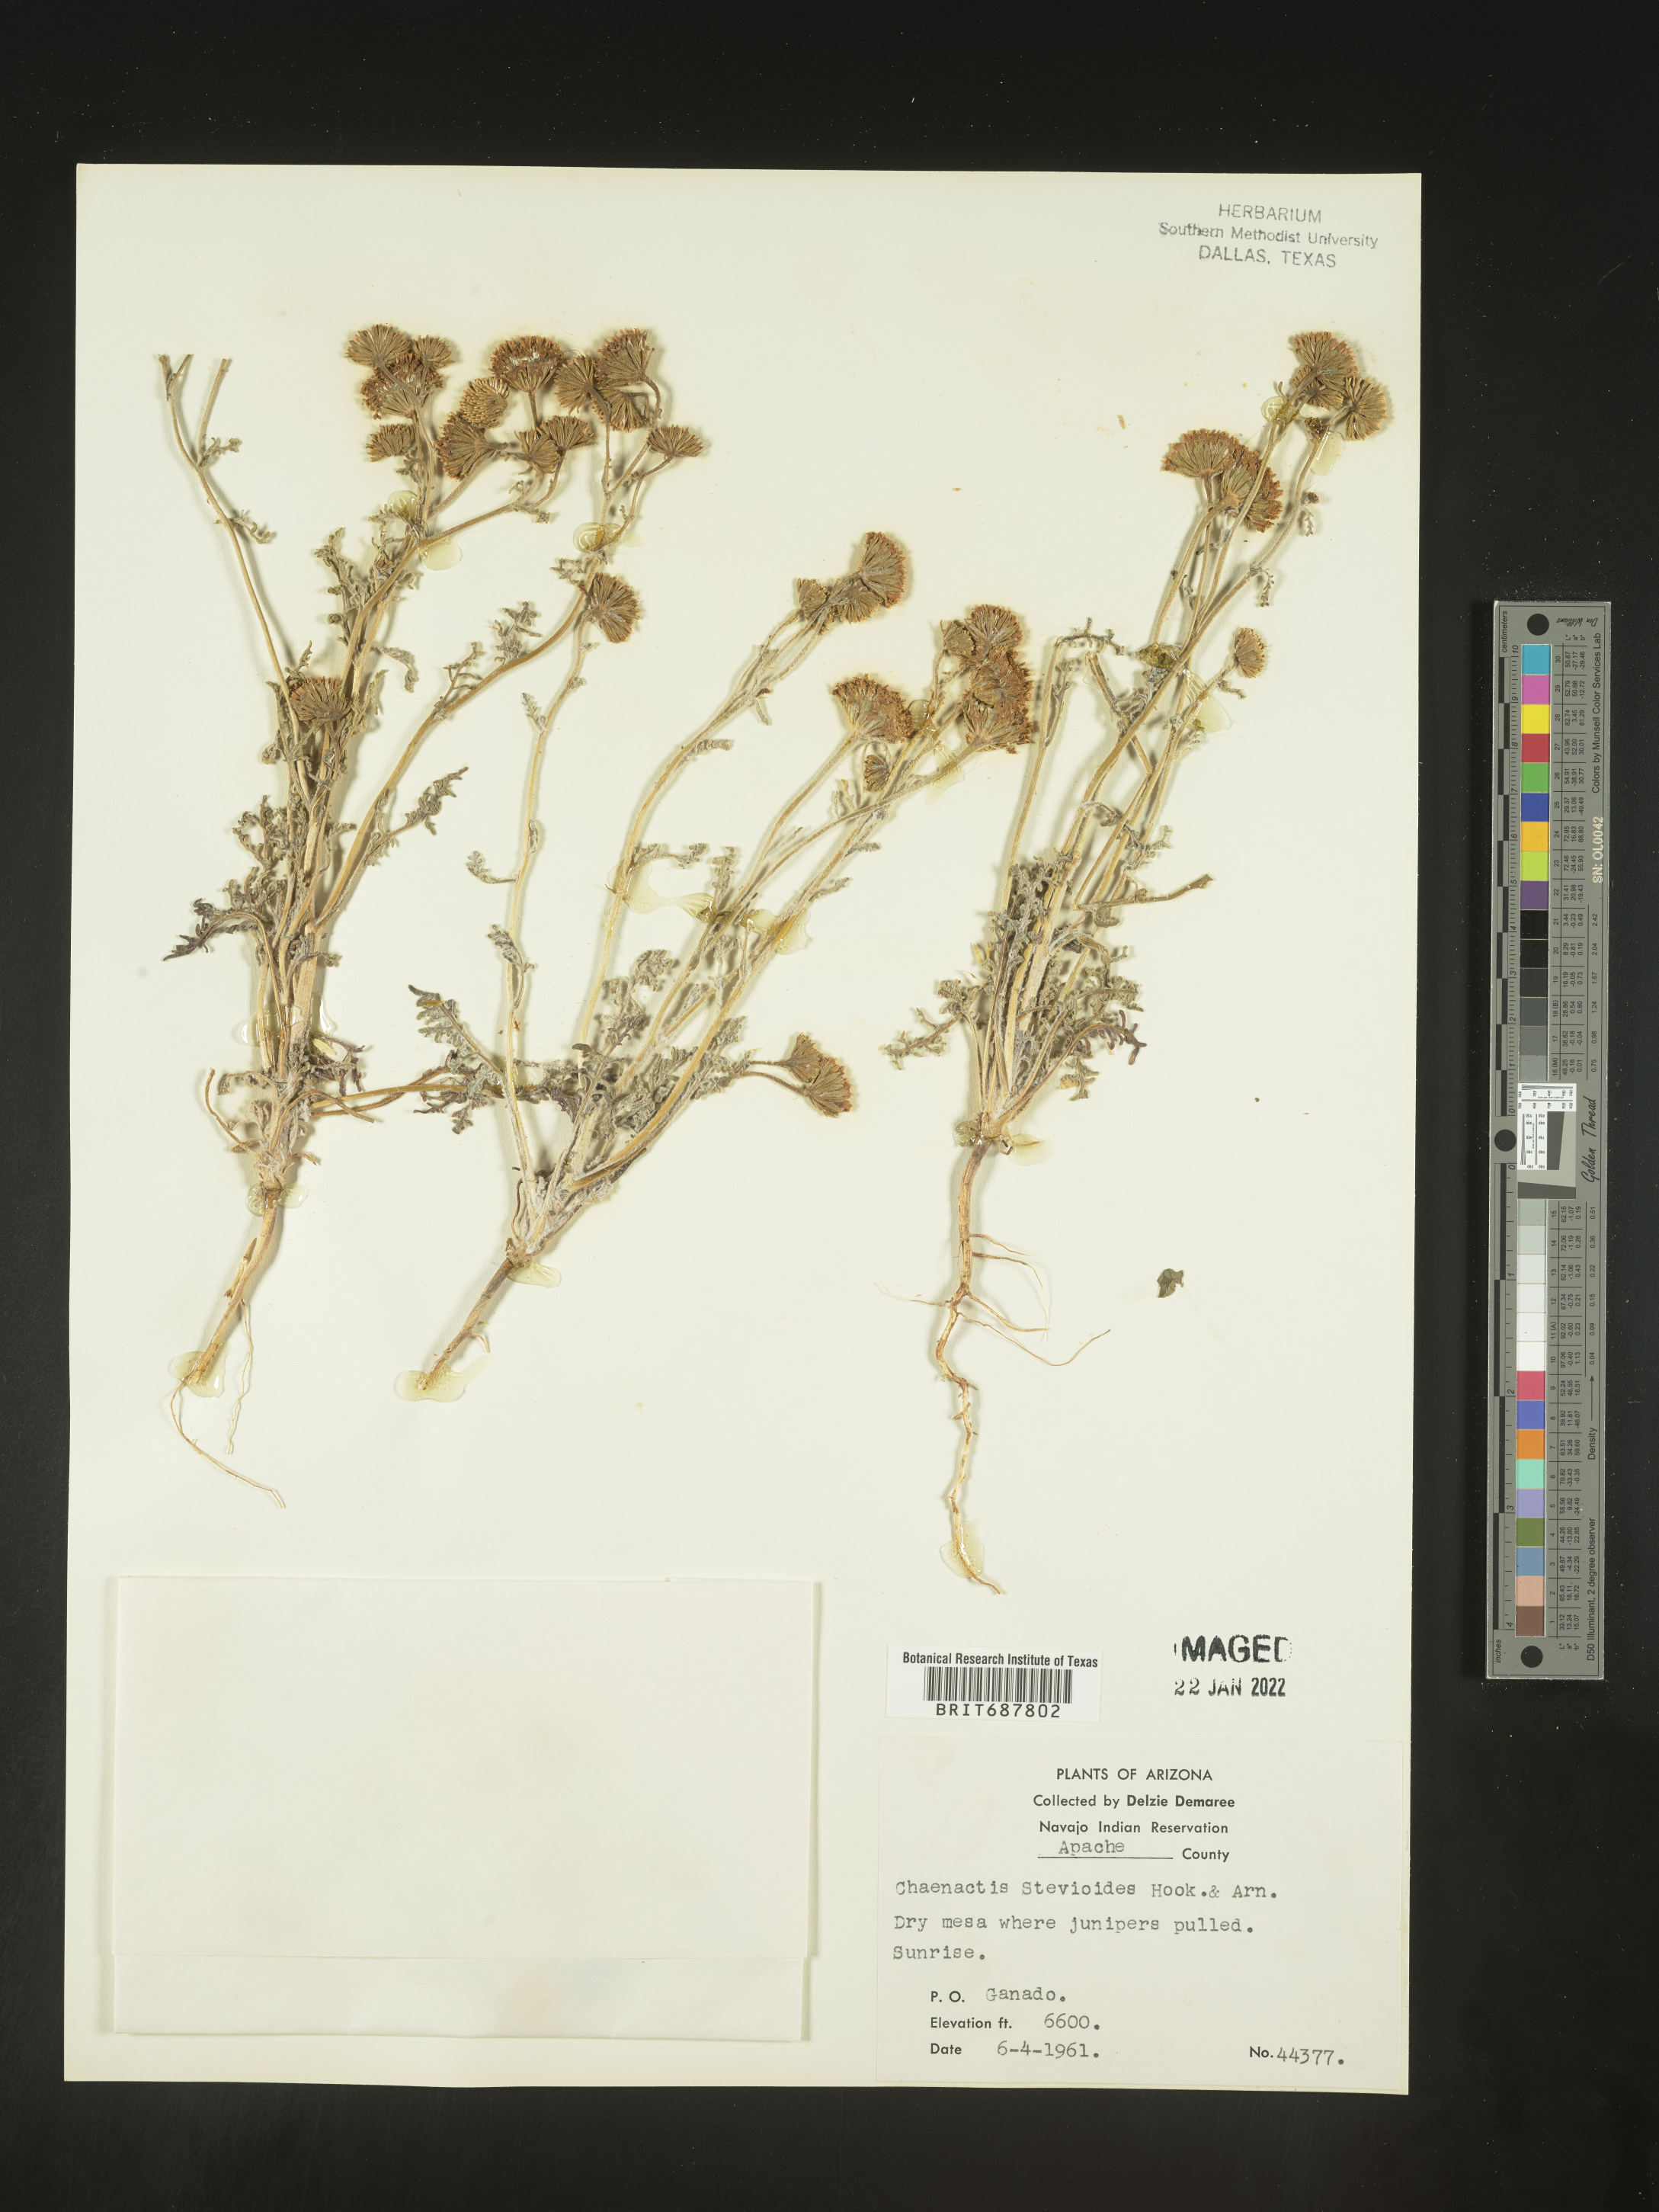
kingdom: Plantae
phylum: Tracheophyta
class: Magnoliopsida
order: Asterales
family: Asteraceae
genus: Chaenactis
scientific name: Chaenactis stevioides
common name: Desert pincushion
